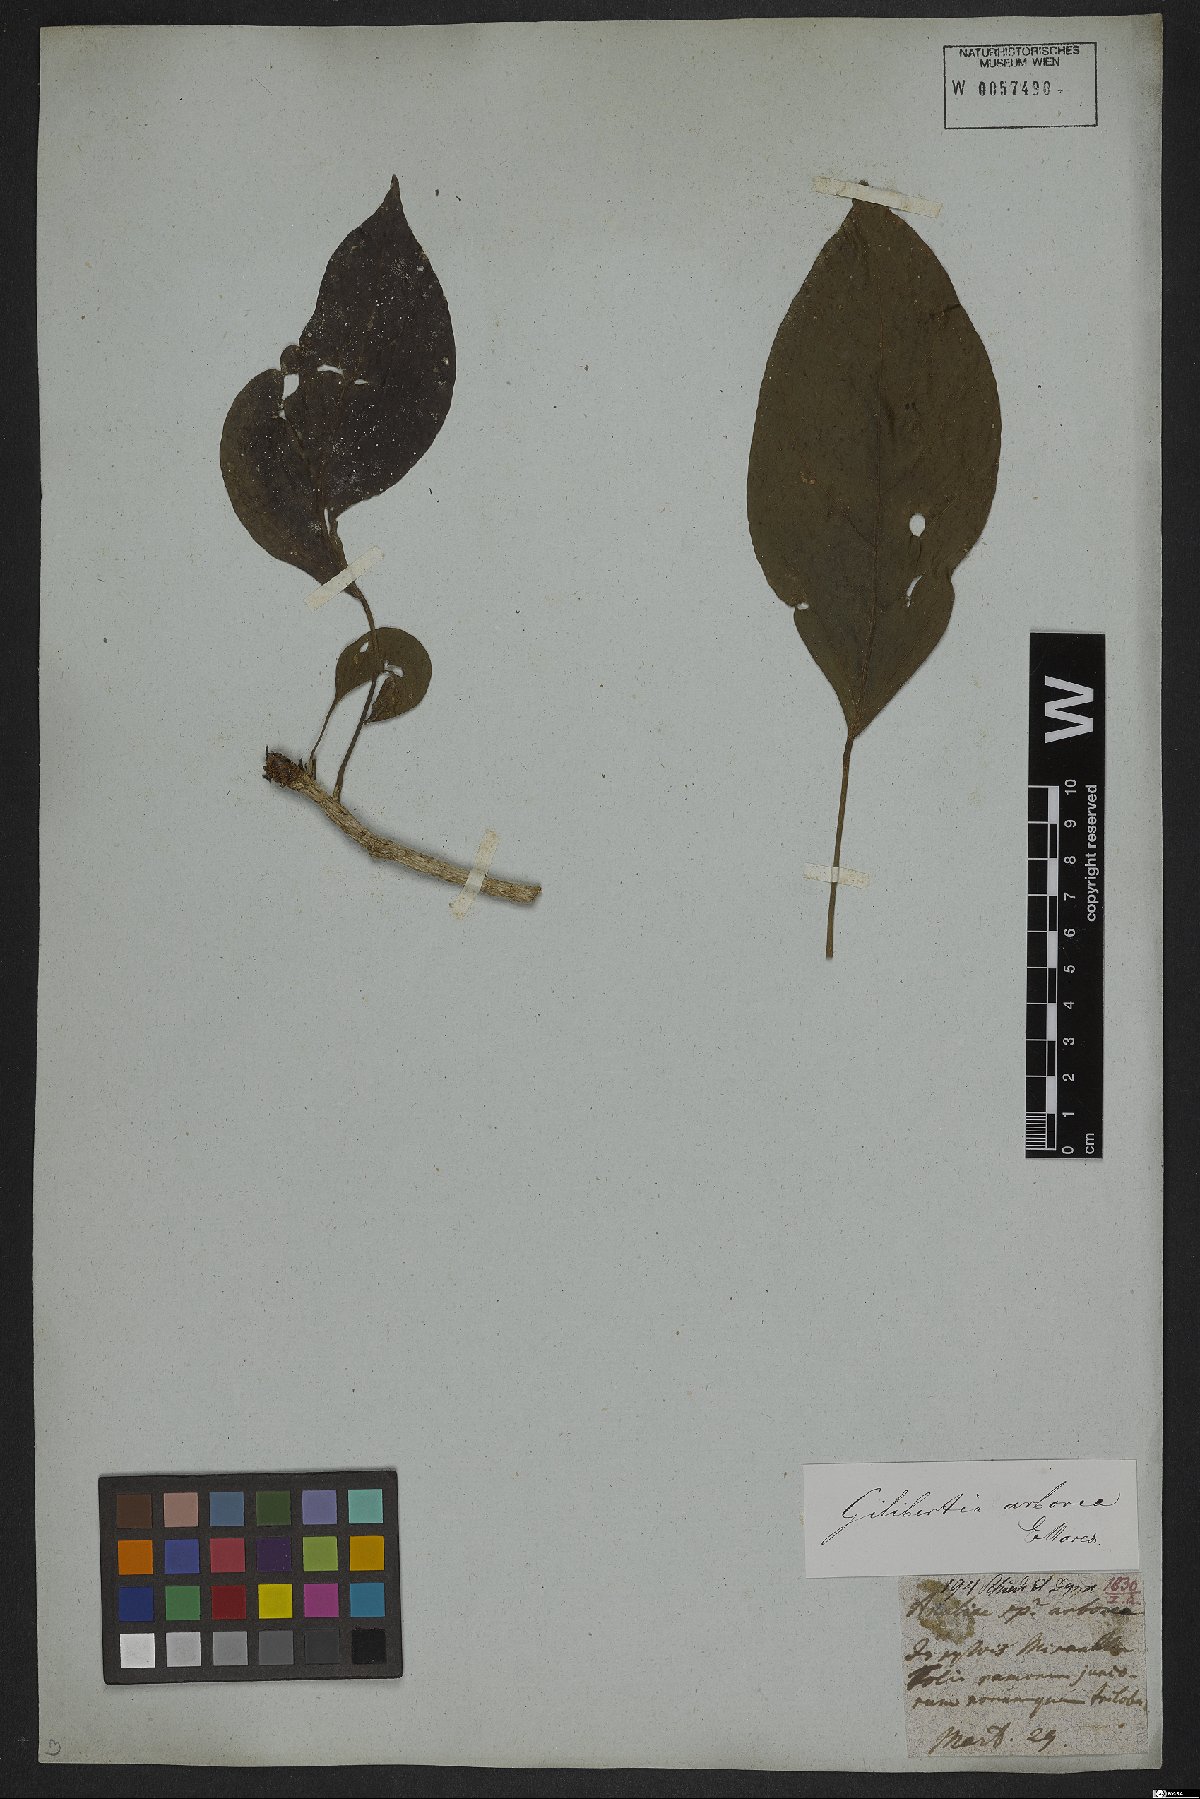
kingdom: Plantae
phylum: Tracheophyta
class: Magnoliopsida
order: Apiales
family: Araliaceae
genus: Dendropanax
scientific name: Dendropanax arboreus
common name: Potato-wood
